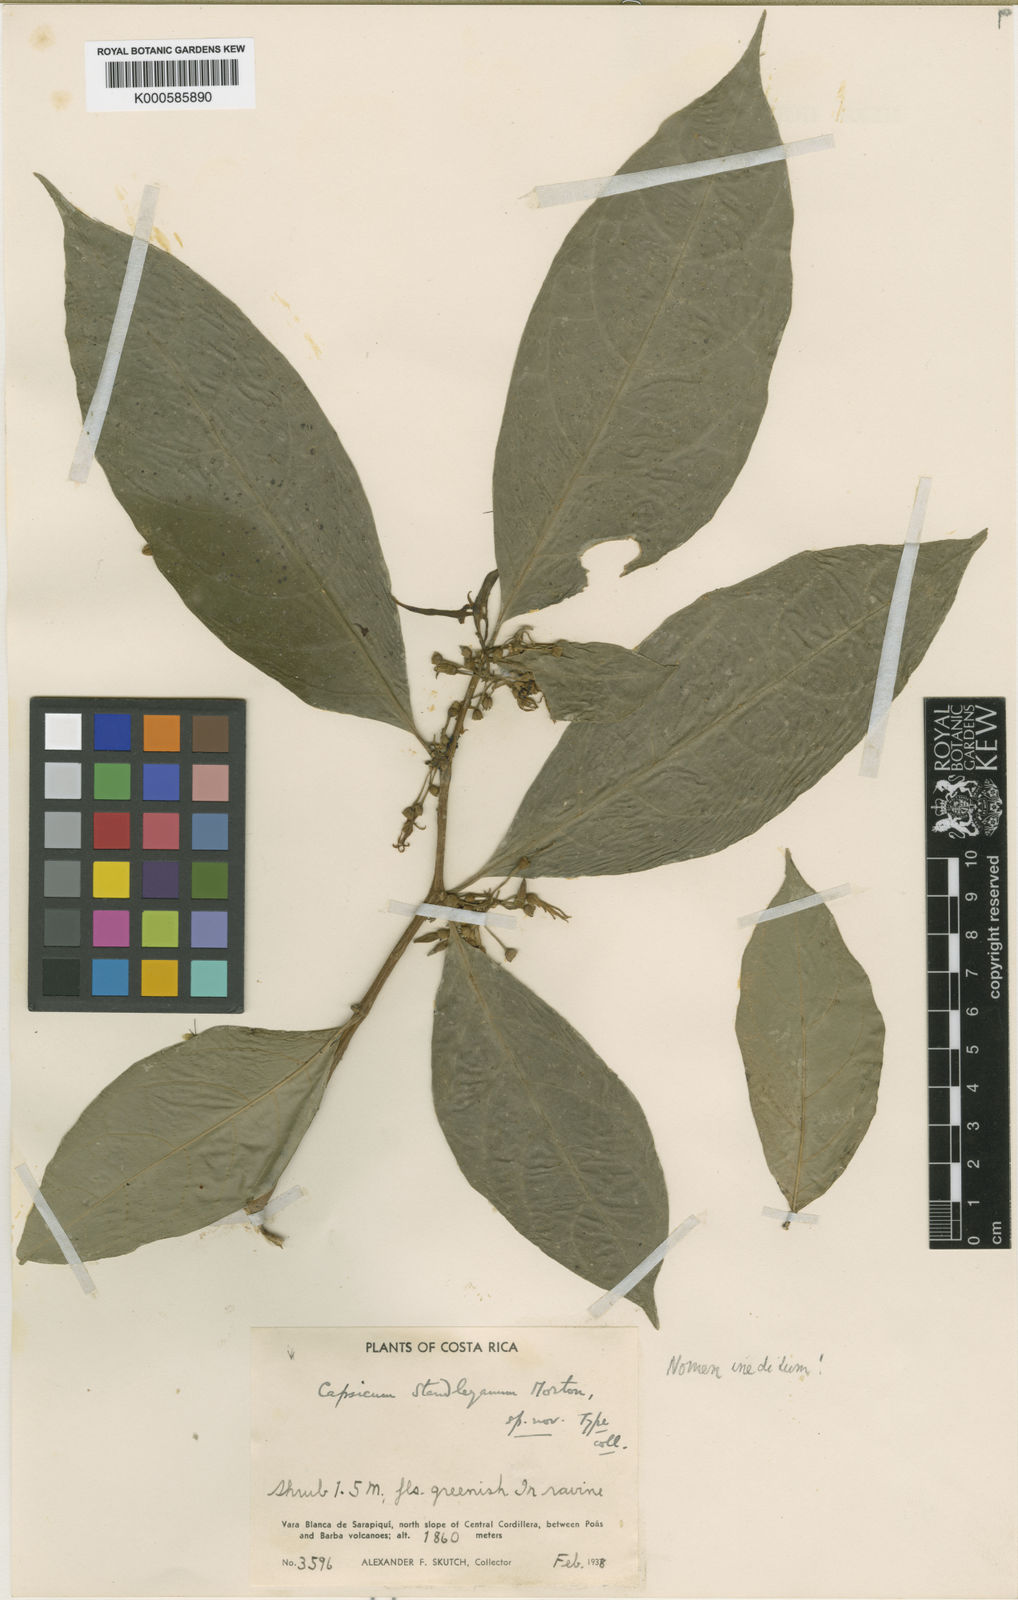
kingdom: Plantae
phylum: Tracheophyta
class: Magnoliopsida
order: Solanales
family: Solanaceae
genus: Capsicum
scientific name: Capsicum
